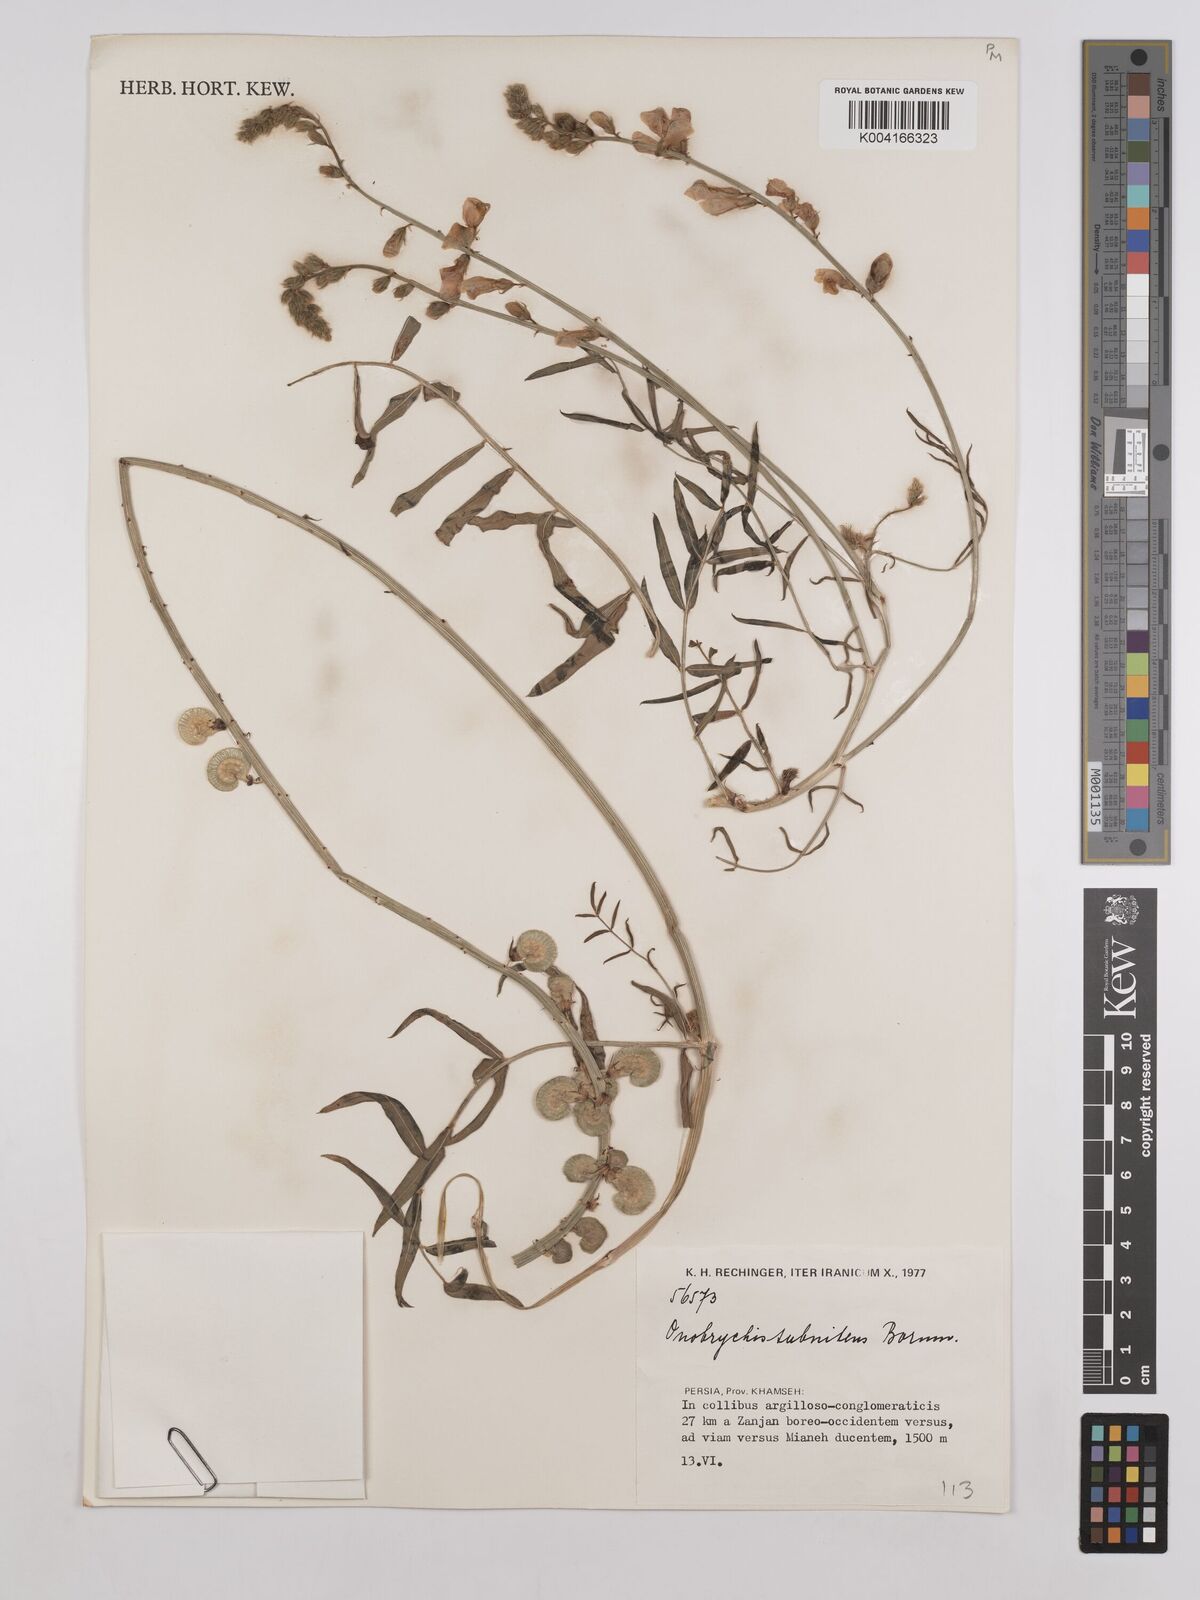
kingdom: Plantae
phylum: Tracheophyta
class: Magnoliopsida
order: Fabales
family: Fabaceae
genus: Onobrychis
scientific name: Onobrychis subnitens
